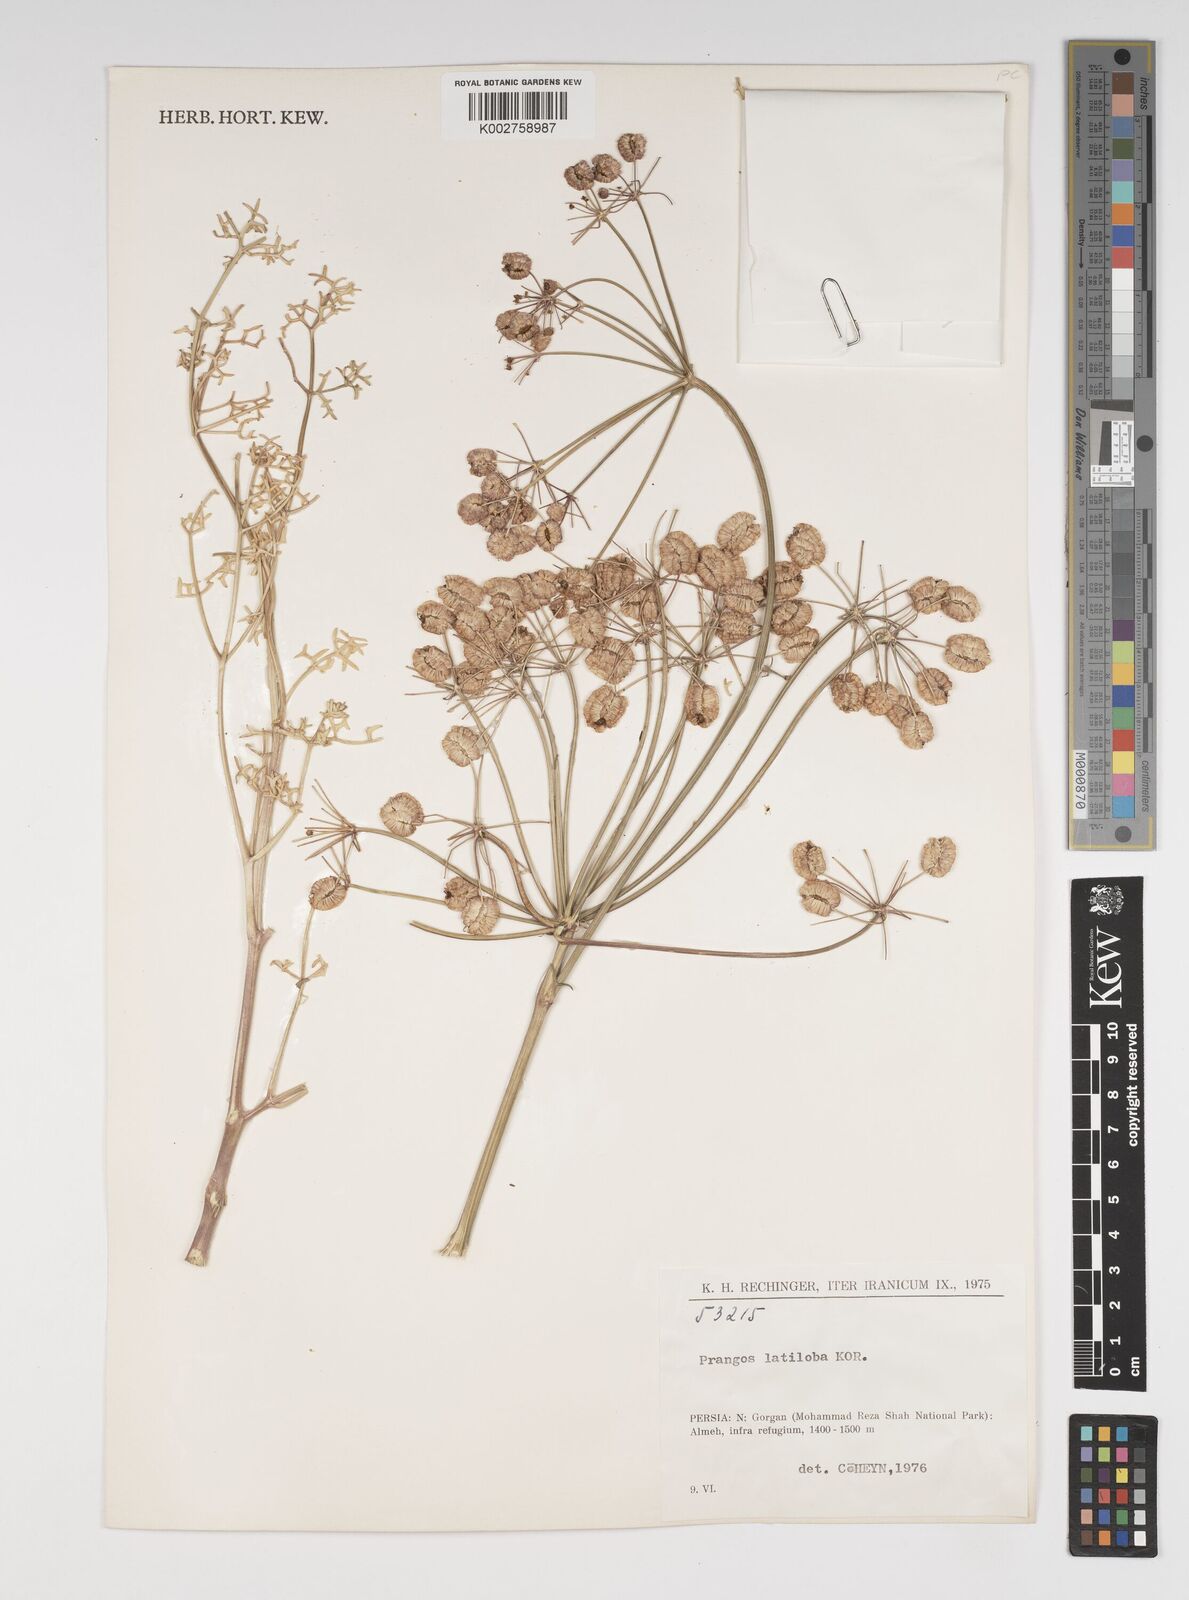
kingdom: Plantae
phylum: Tracheophyta
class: Magnoliopsida
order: Apiales
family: Apiaceae
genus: Prangos
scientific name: Prangos latiloba
